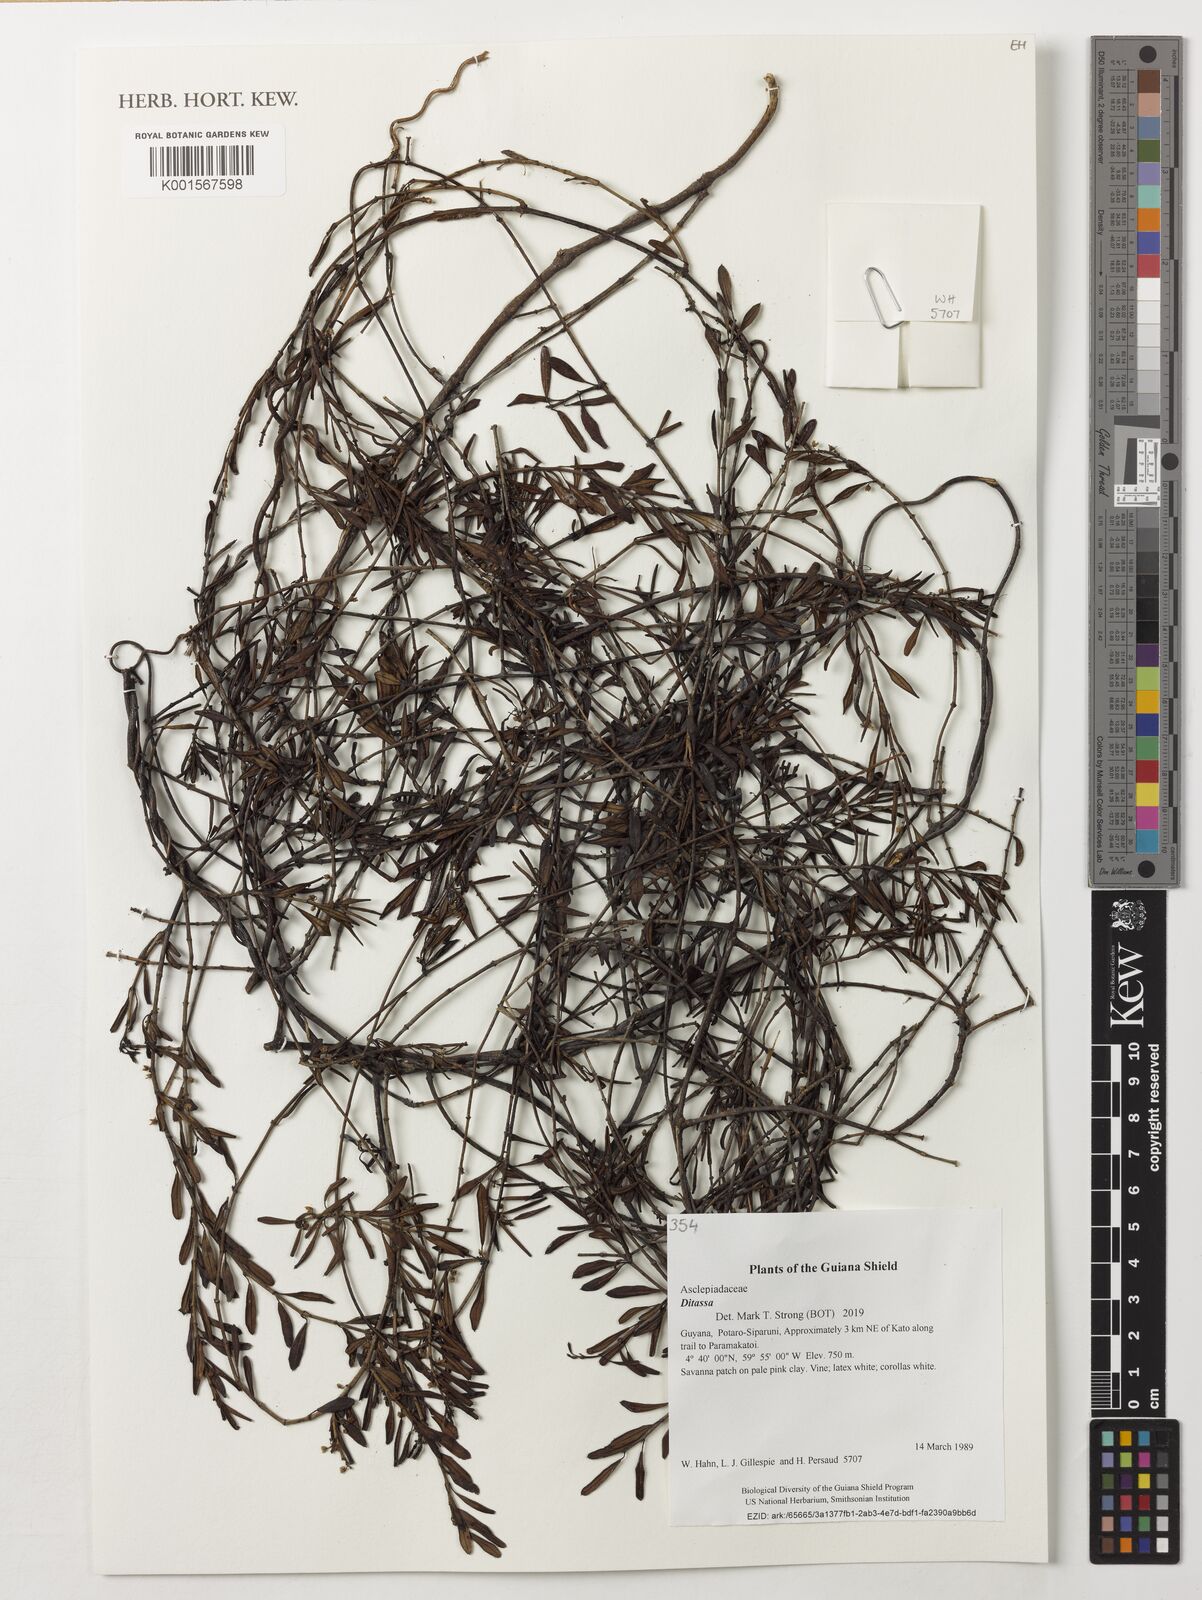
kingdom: Plantae
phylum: Tracheophyta
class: Magnoliopsida
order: Gentianales
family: Apocynaceae
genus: Ditassa
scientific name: Ditassa
